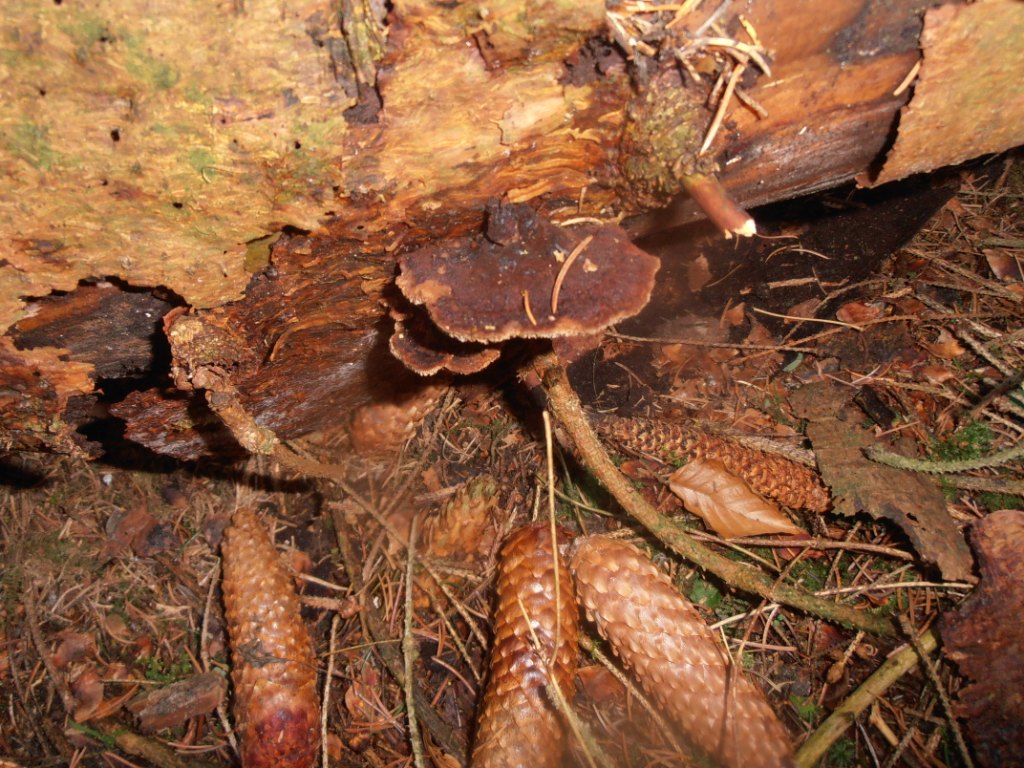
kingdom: Fungi
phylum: Basidiomycota
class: Agaricomycetes
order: Polyporales
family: Ischnodermataceae
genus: Ischnoderma
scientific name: Ischnoderma benzoinum
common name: gran-tjæreporesvamp
